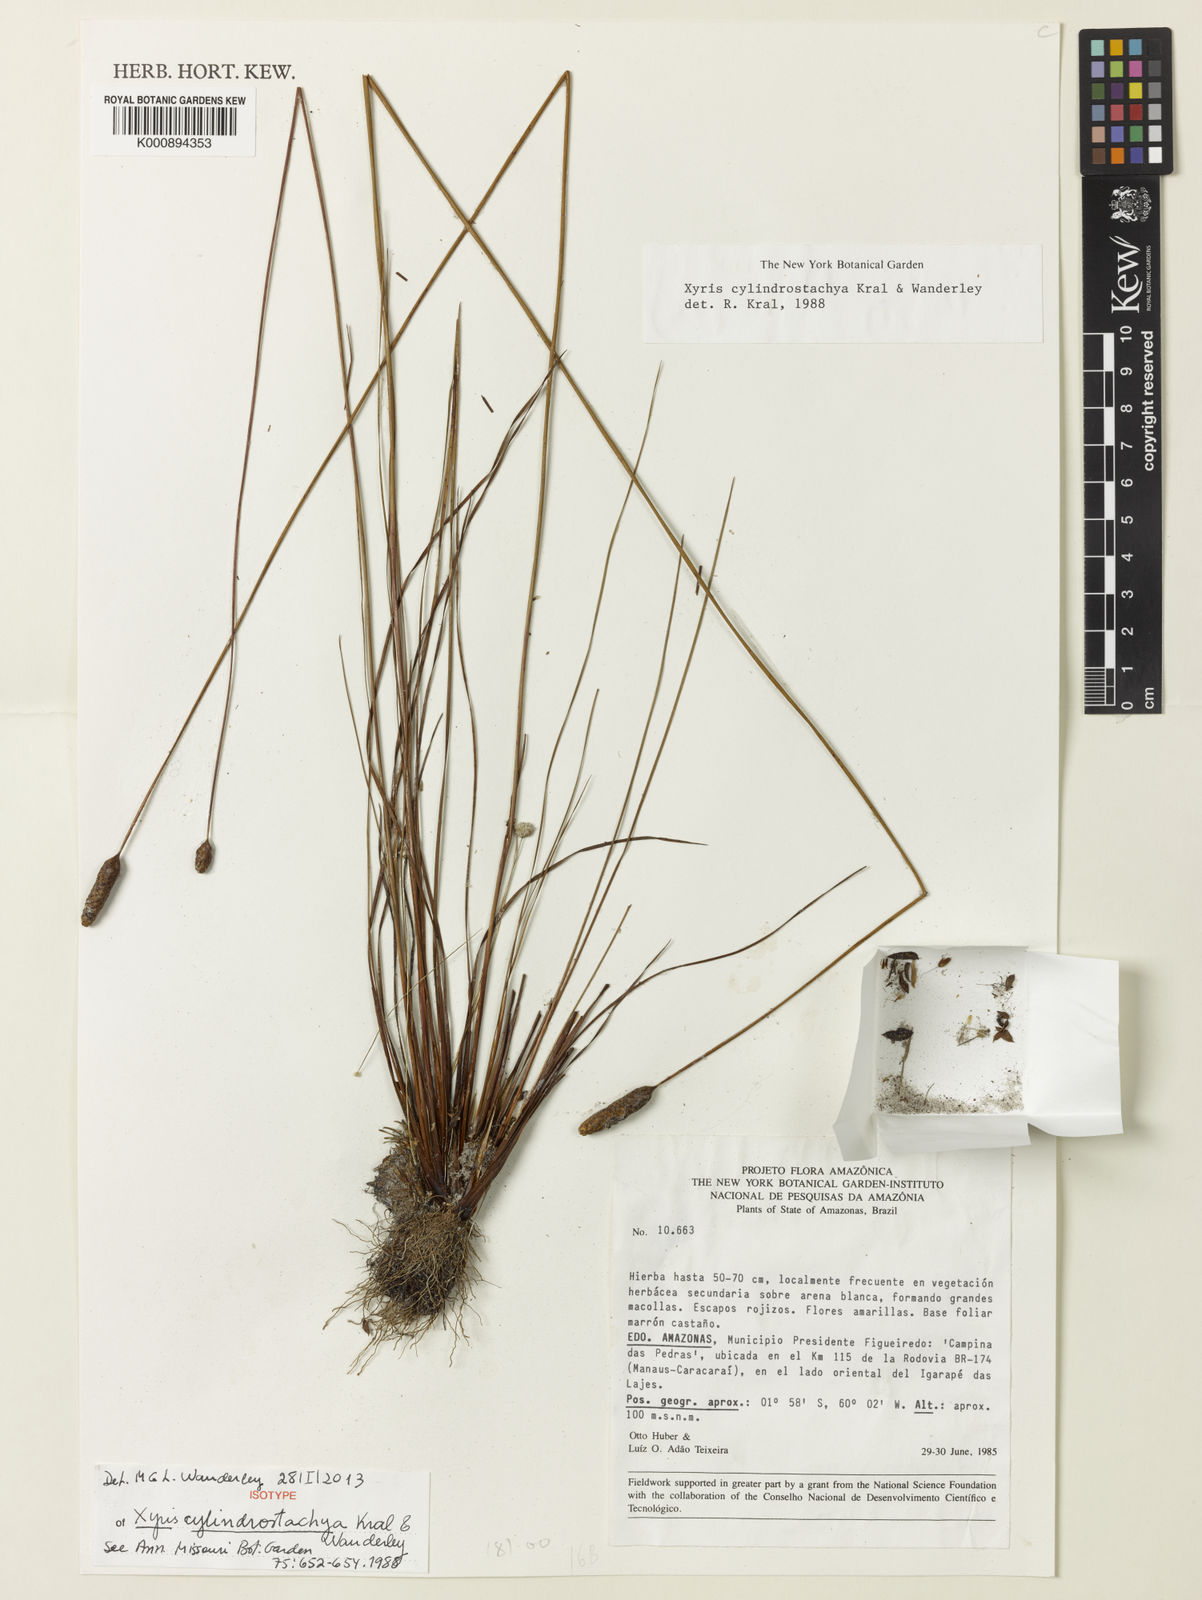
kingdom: Plantae
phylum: Tracheophyta
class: Liliopsida
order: Poales
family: Xyridaceae
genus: Xyris
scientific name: Xyris cylindrostachya
